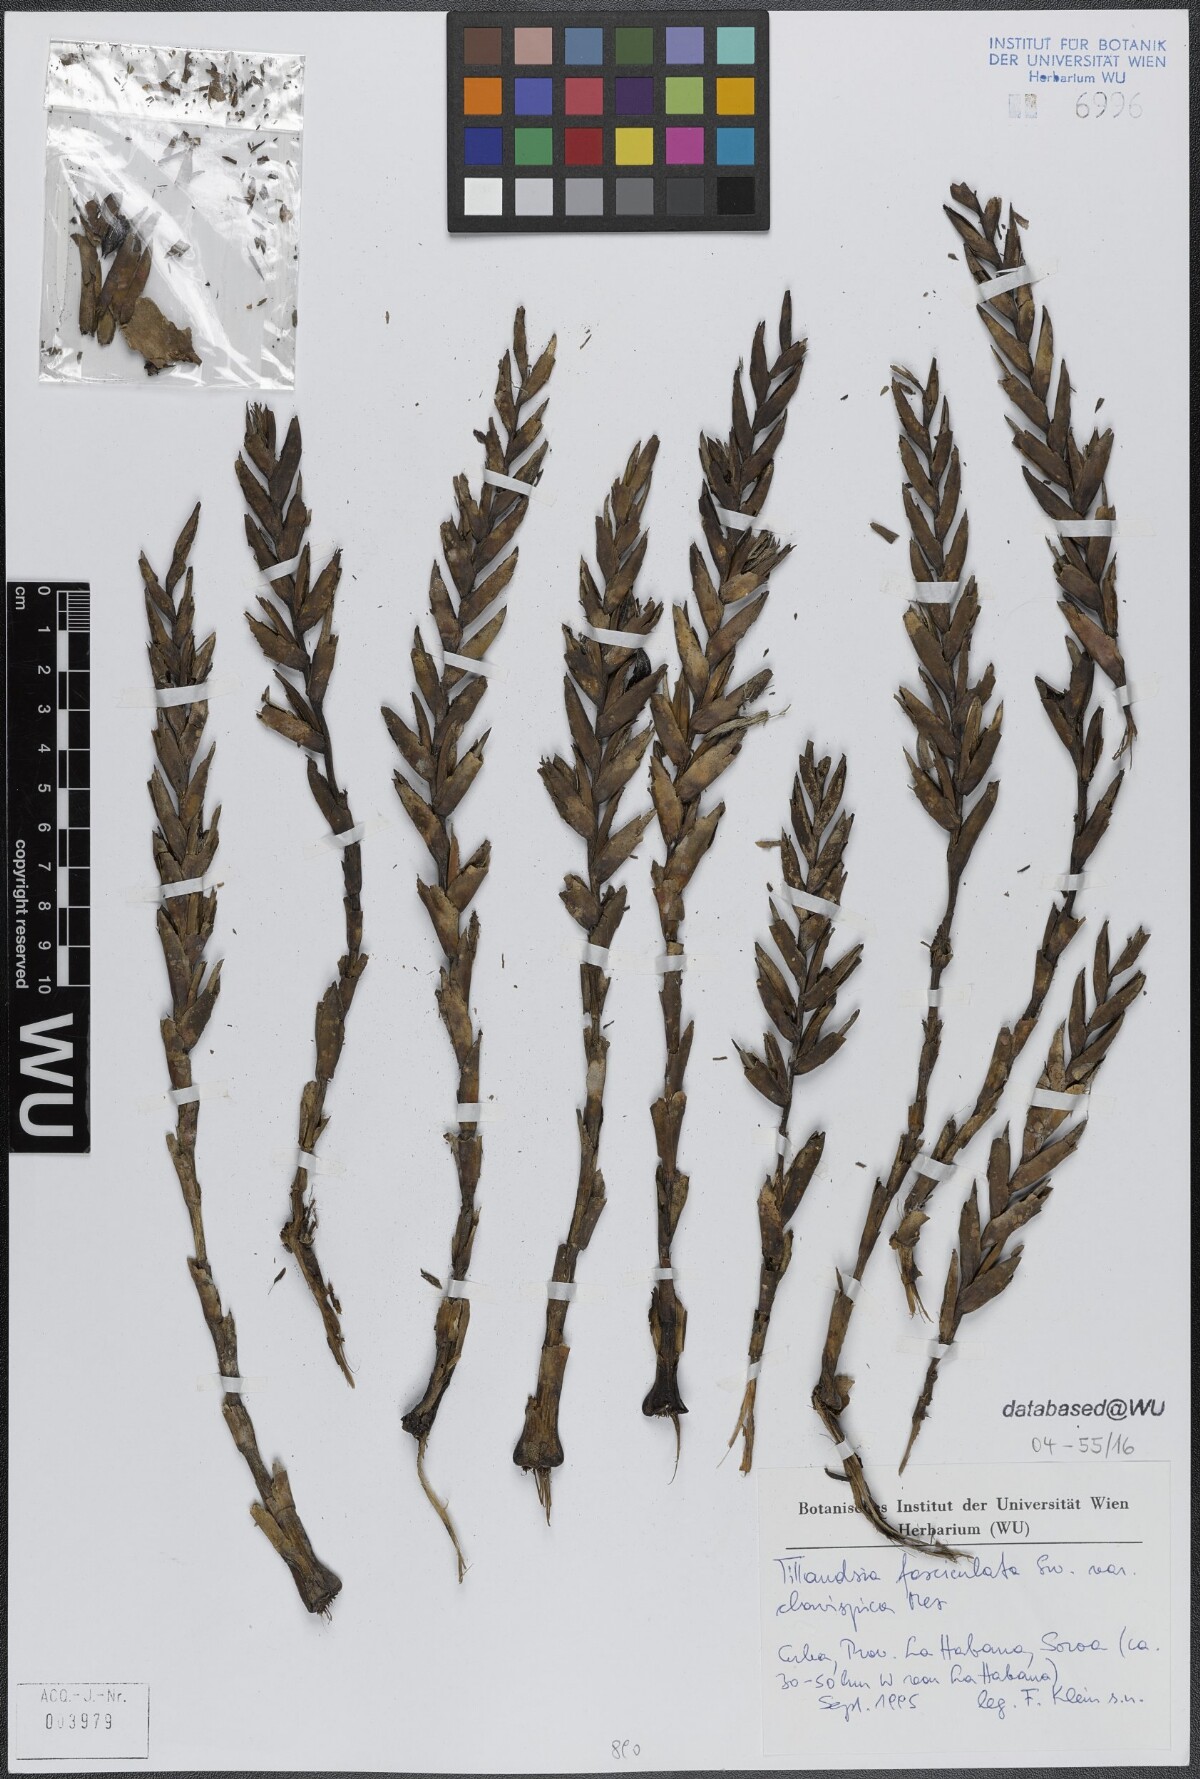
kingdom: Plantae
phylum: Tracheophyta
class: Liliopsida
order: Poales
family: Bromeliaceae
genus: Tillandsia
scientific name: Tillandsia fasciculata
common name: Giant airplant
